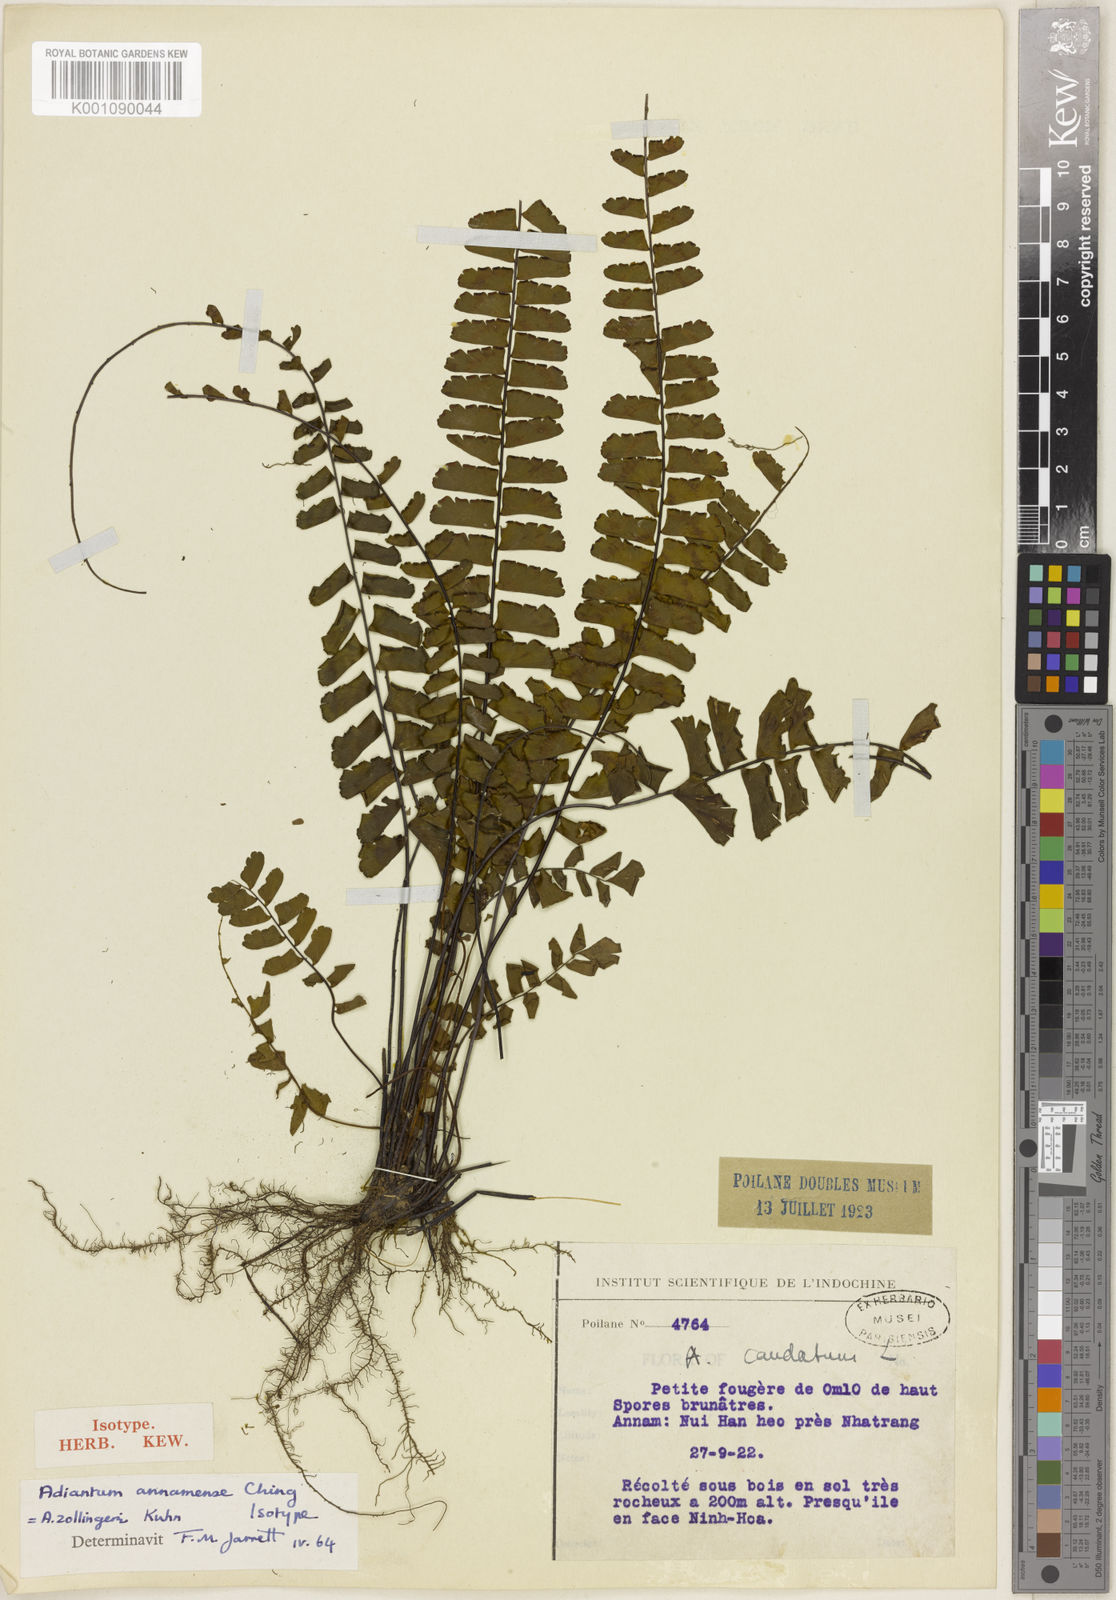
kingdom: Plantae
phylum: Tracheophyta
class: Polypodiopsida
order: Polypodiales
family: Pteridaceae
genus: Adiantum
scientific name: Adiantum
